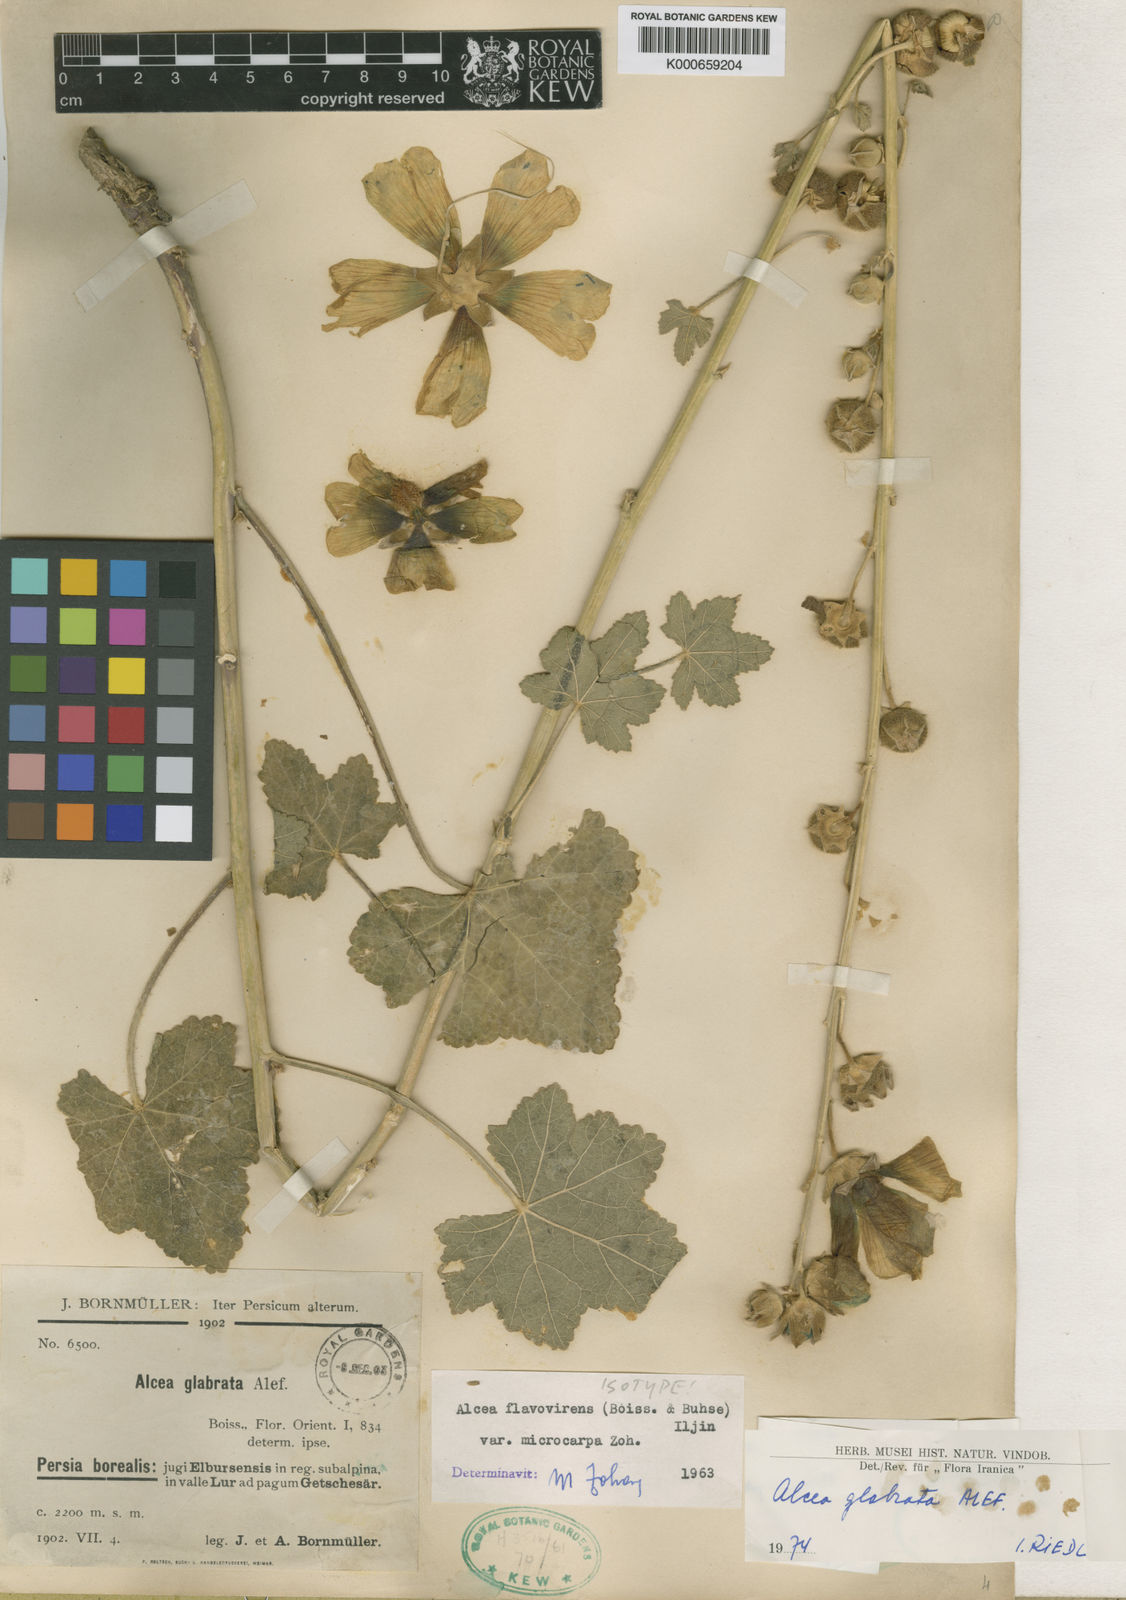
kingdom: Plantae
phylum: Tracheophyta
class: Magnoliopsida
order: Malvales
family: Malvaceae
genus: Alcea
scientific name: Alcea glabrata
